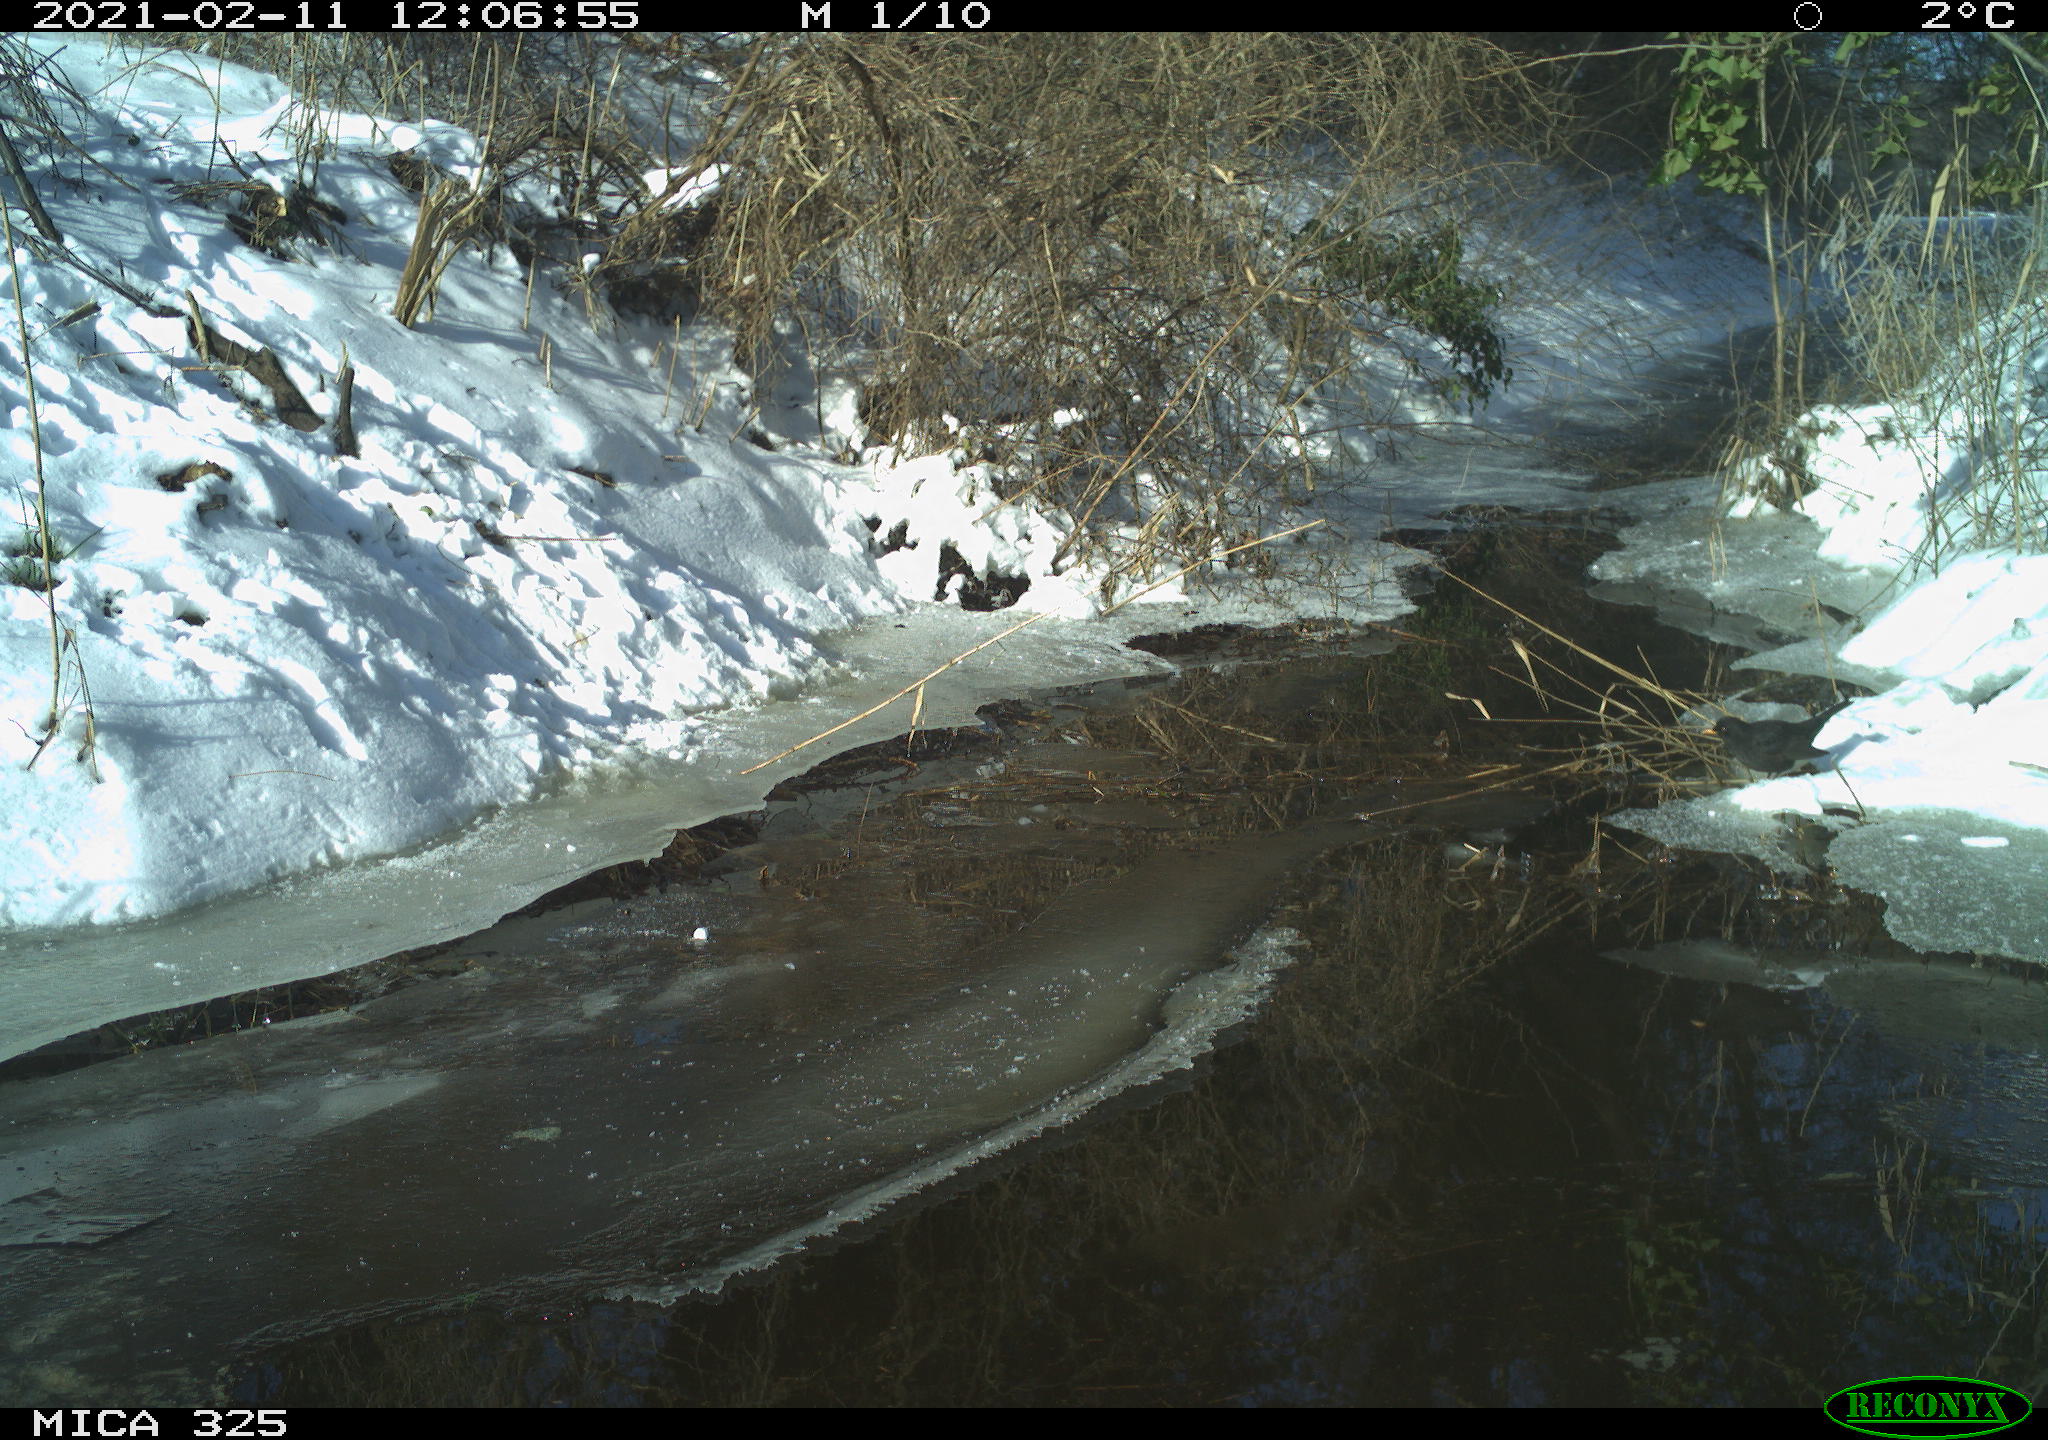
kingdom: Animalia
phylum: Chordata
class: Aves
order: Passeriformes
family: Turdidae
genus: Turdus
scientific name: Turdus merula
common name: Common blackbird
